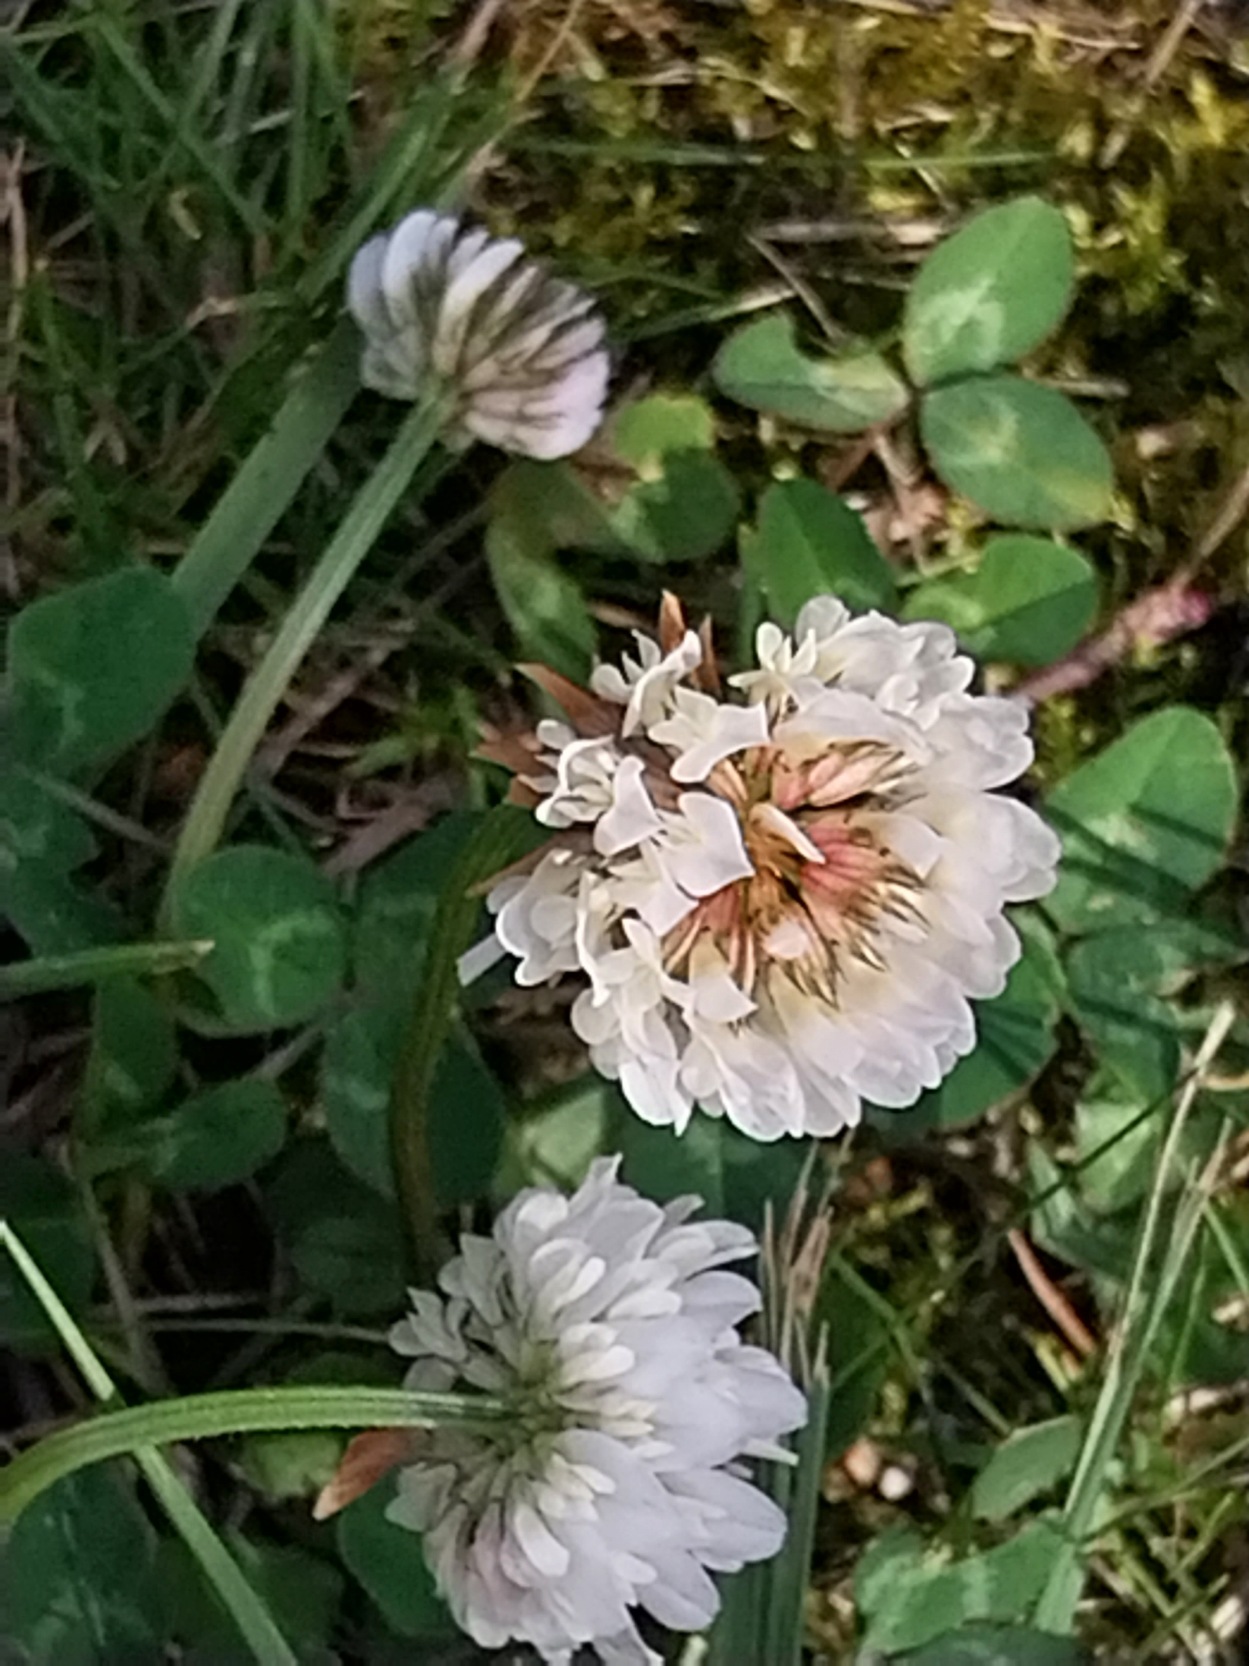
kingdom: Plantae
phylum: Tracheophyta
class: Magnoliopsida
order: Fabales
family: Fabaceae
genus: Trifolium
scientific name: Trifolium repens
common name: Hvid-kløver
